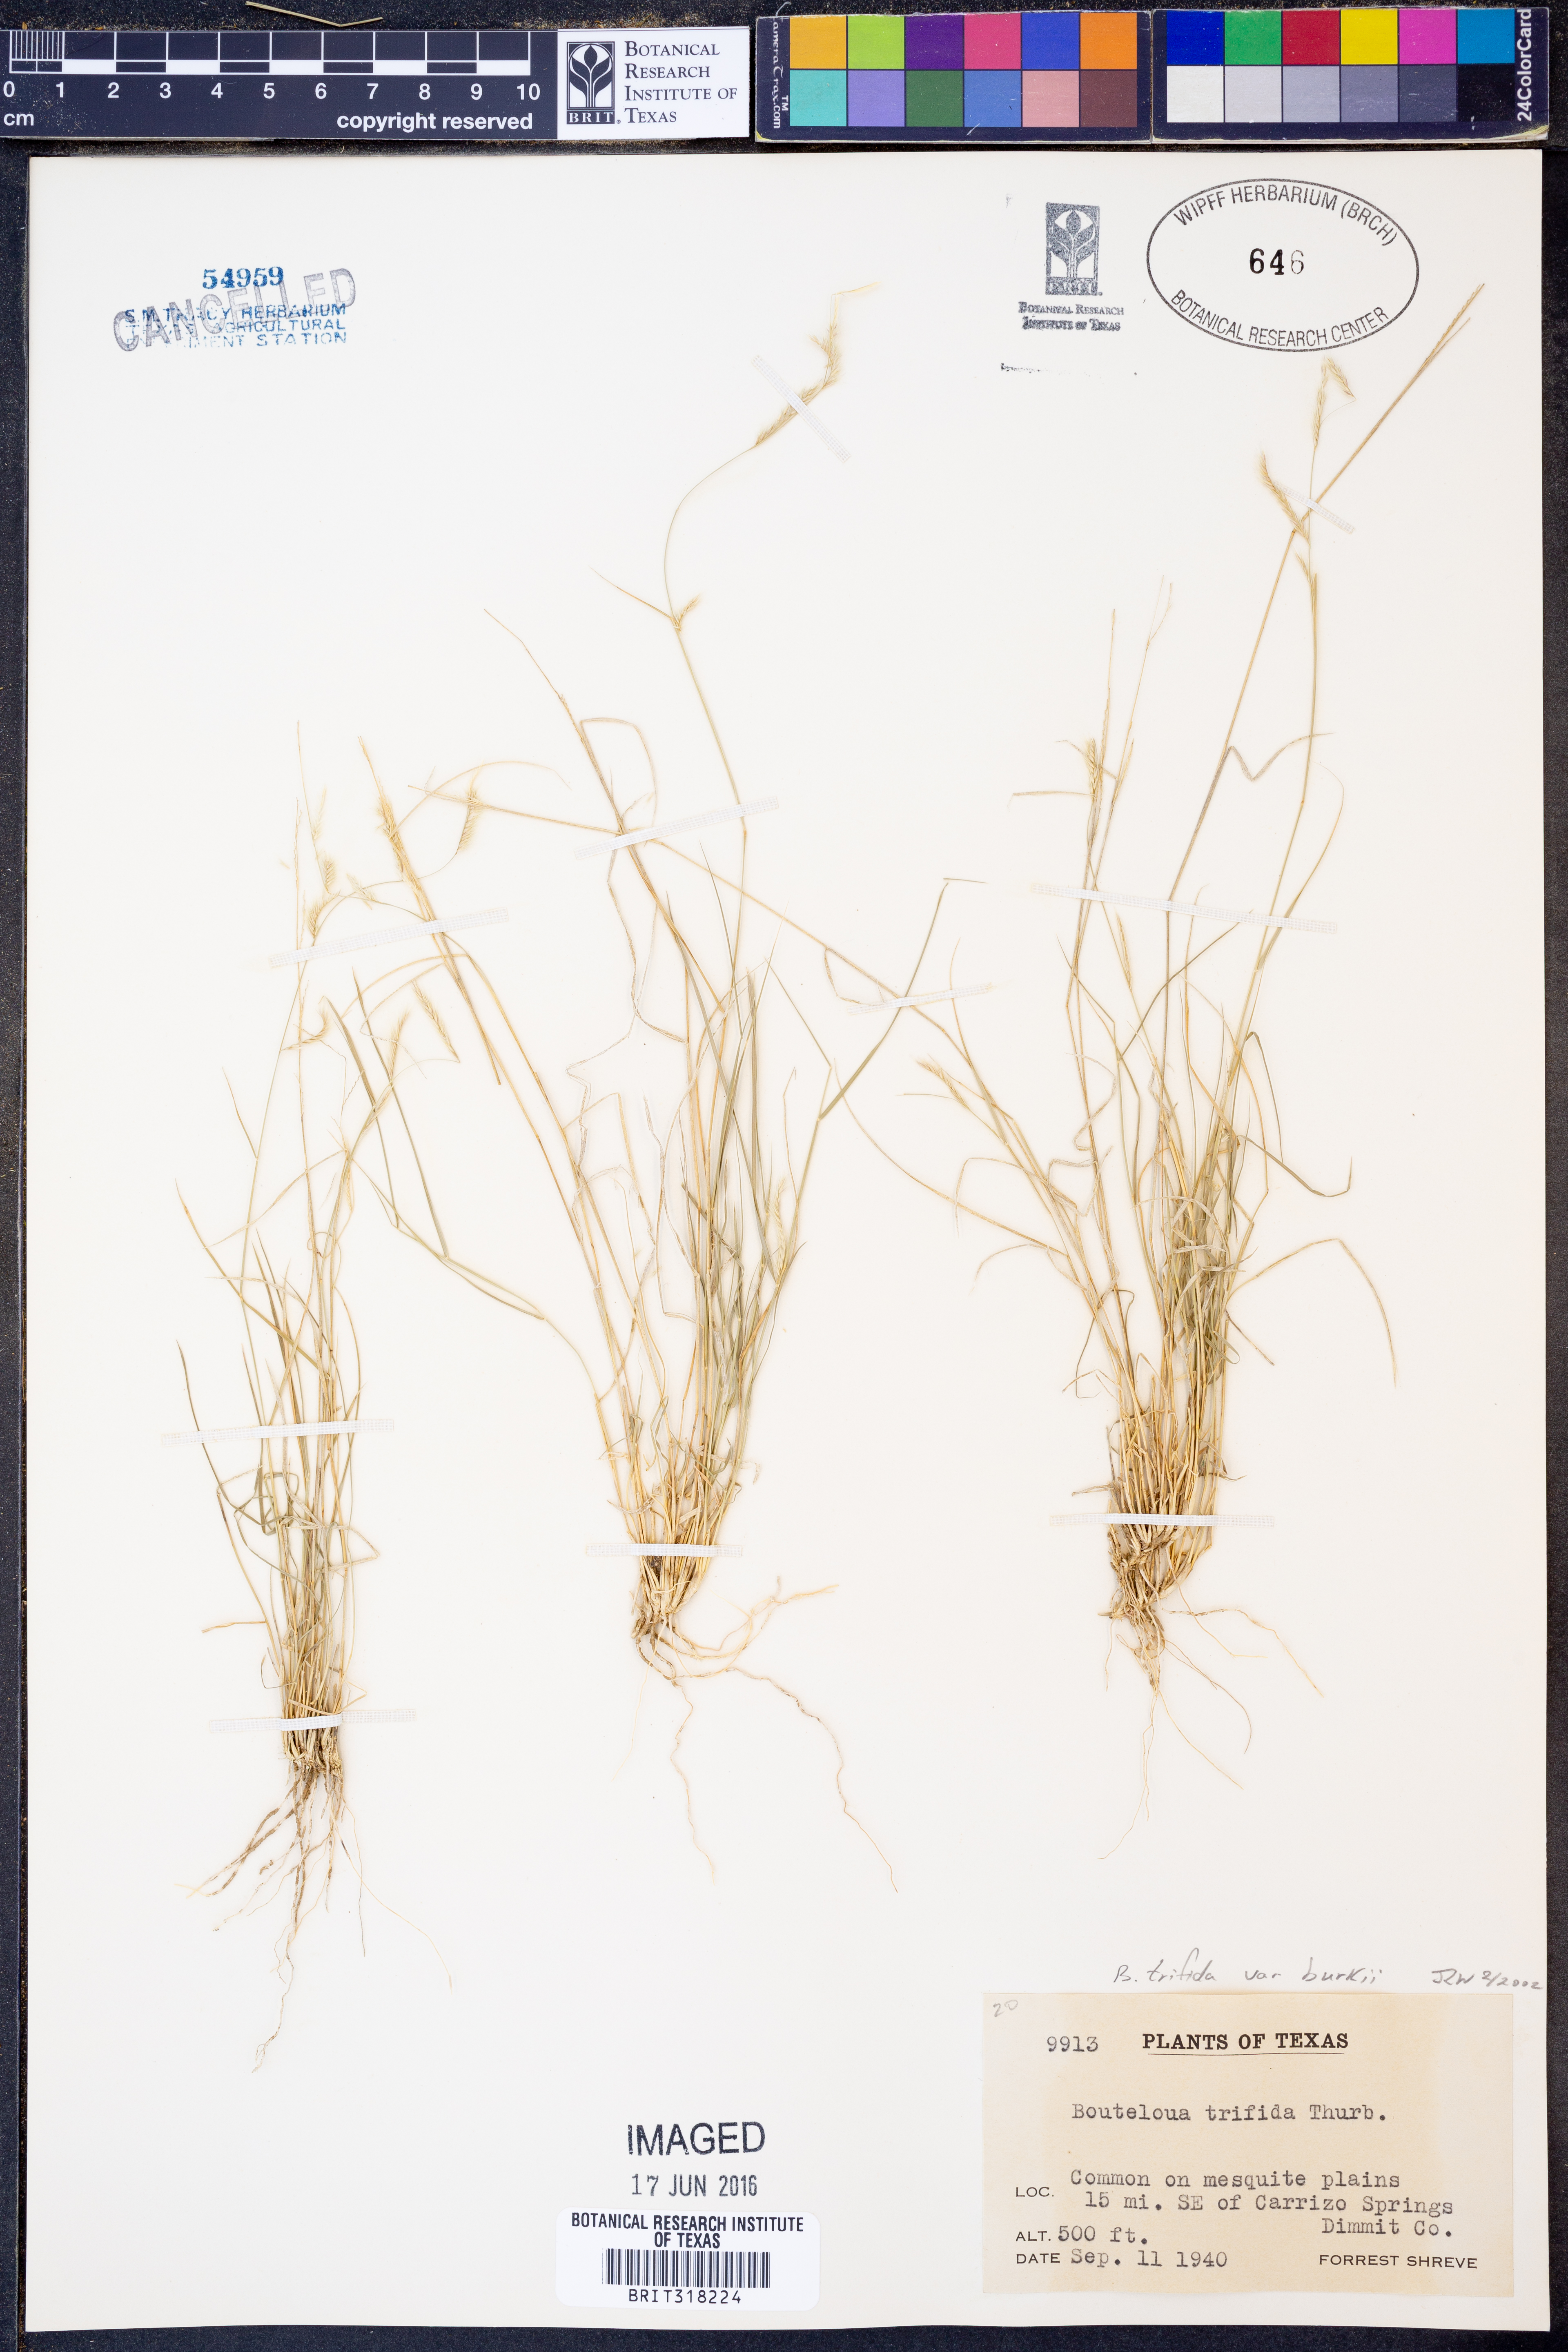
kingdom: Plantae
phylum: Tracheophyta
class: Liliopsida
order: Poales
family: Poaceae
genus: Bouteloua
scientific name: Bouteloua trifida
